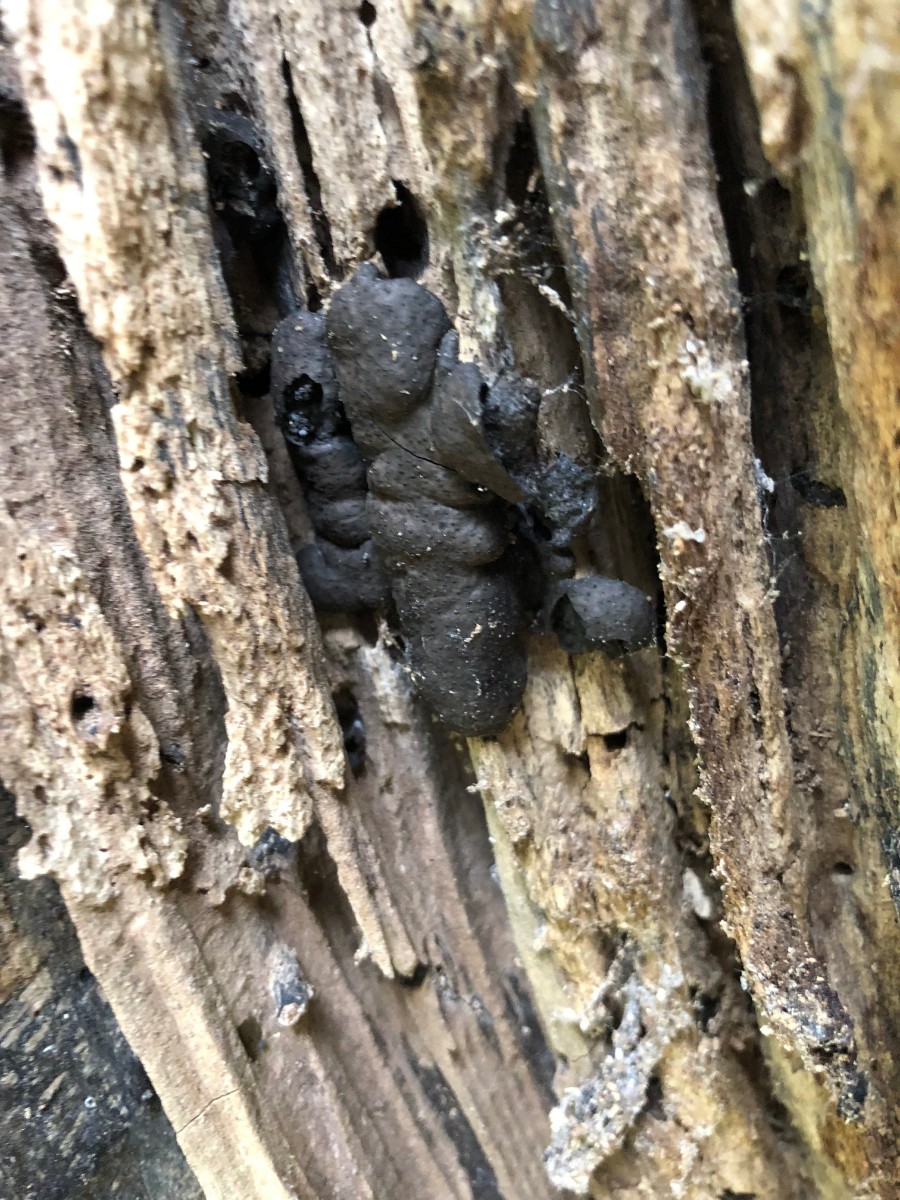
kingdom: Fungi
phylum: Ascomycota
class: Sordariomycetes
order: Xylariales
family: Xylariaceae
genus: Kretzschmaria
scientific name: Kretzschmaria deusta
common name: stor kulsvamp
